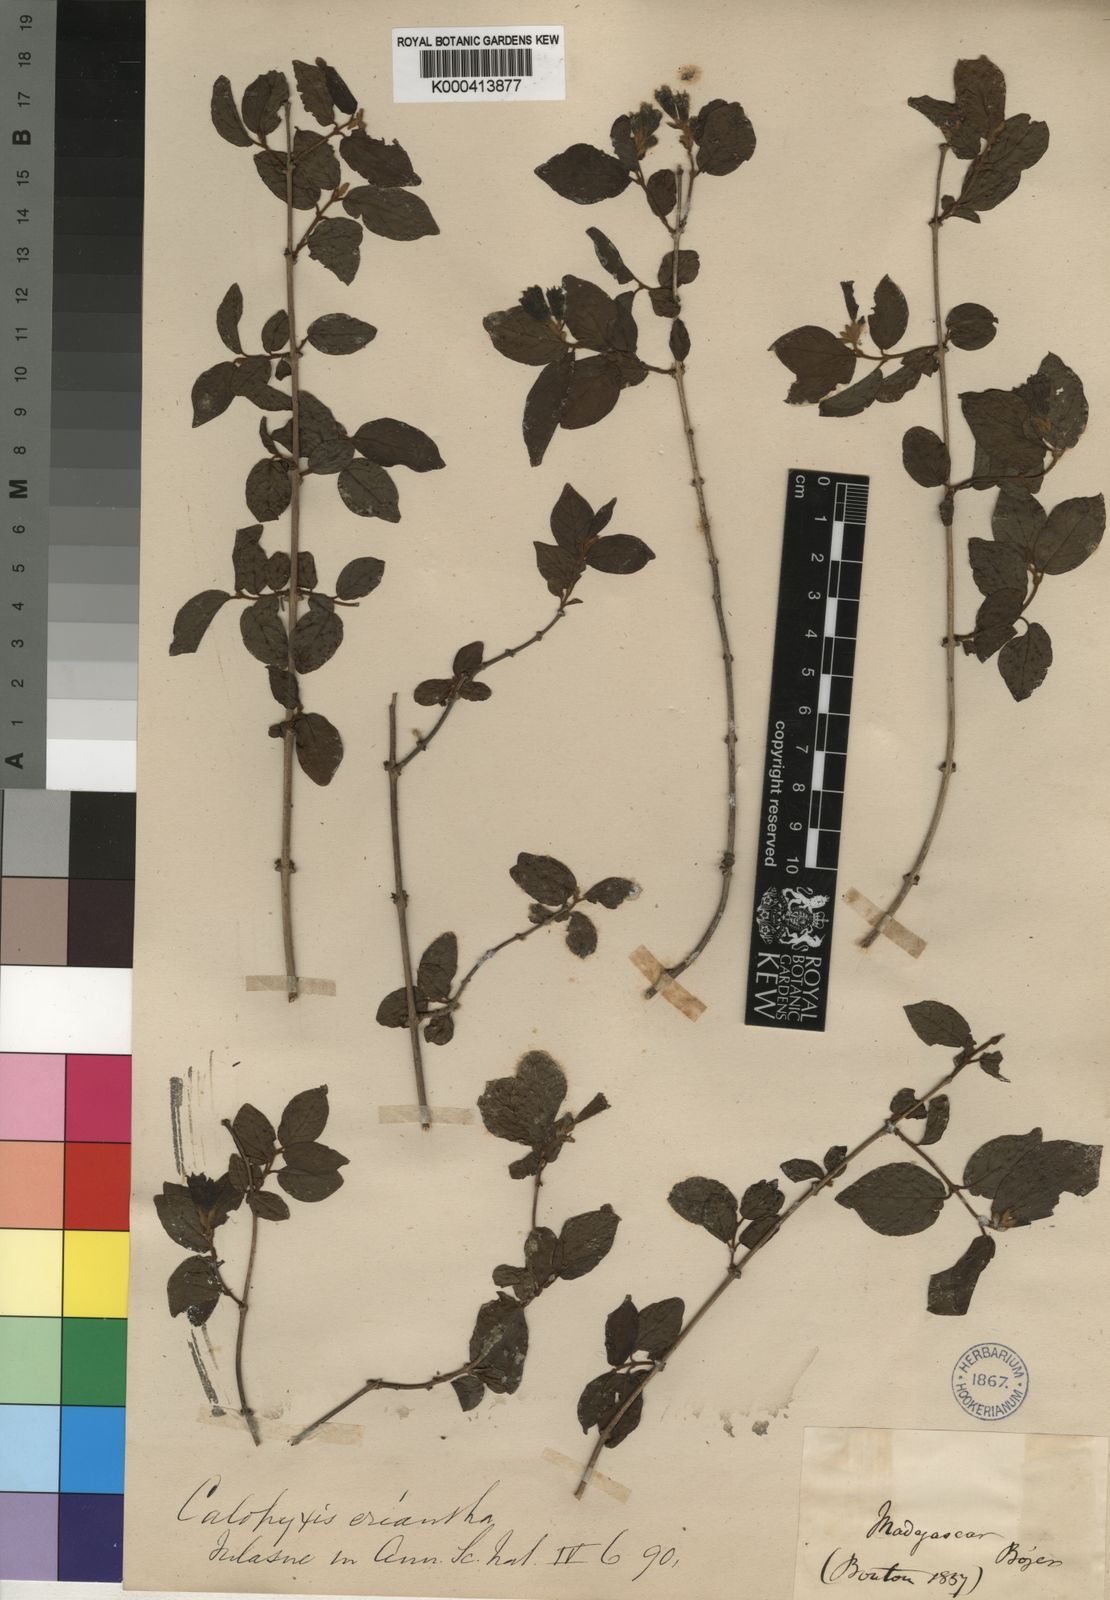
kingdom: Plantae
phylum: Tracheophyta
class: Magnoliopsida
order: Myrtales
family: Combretaceae
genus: Combretum
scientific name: Combretum longicollum
